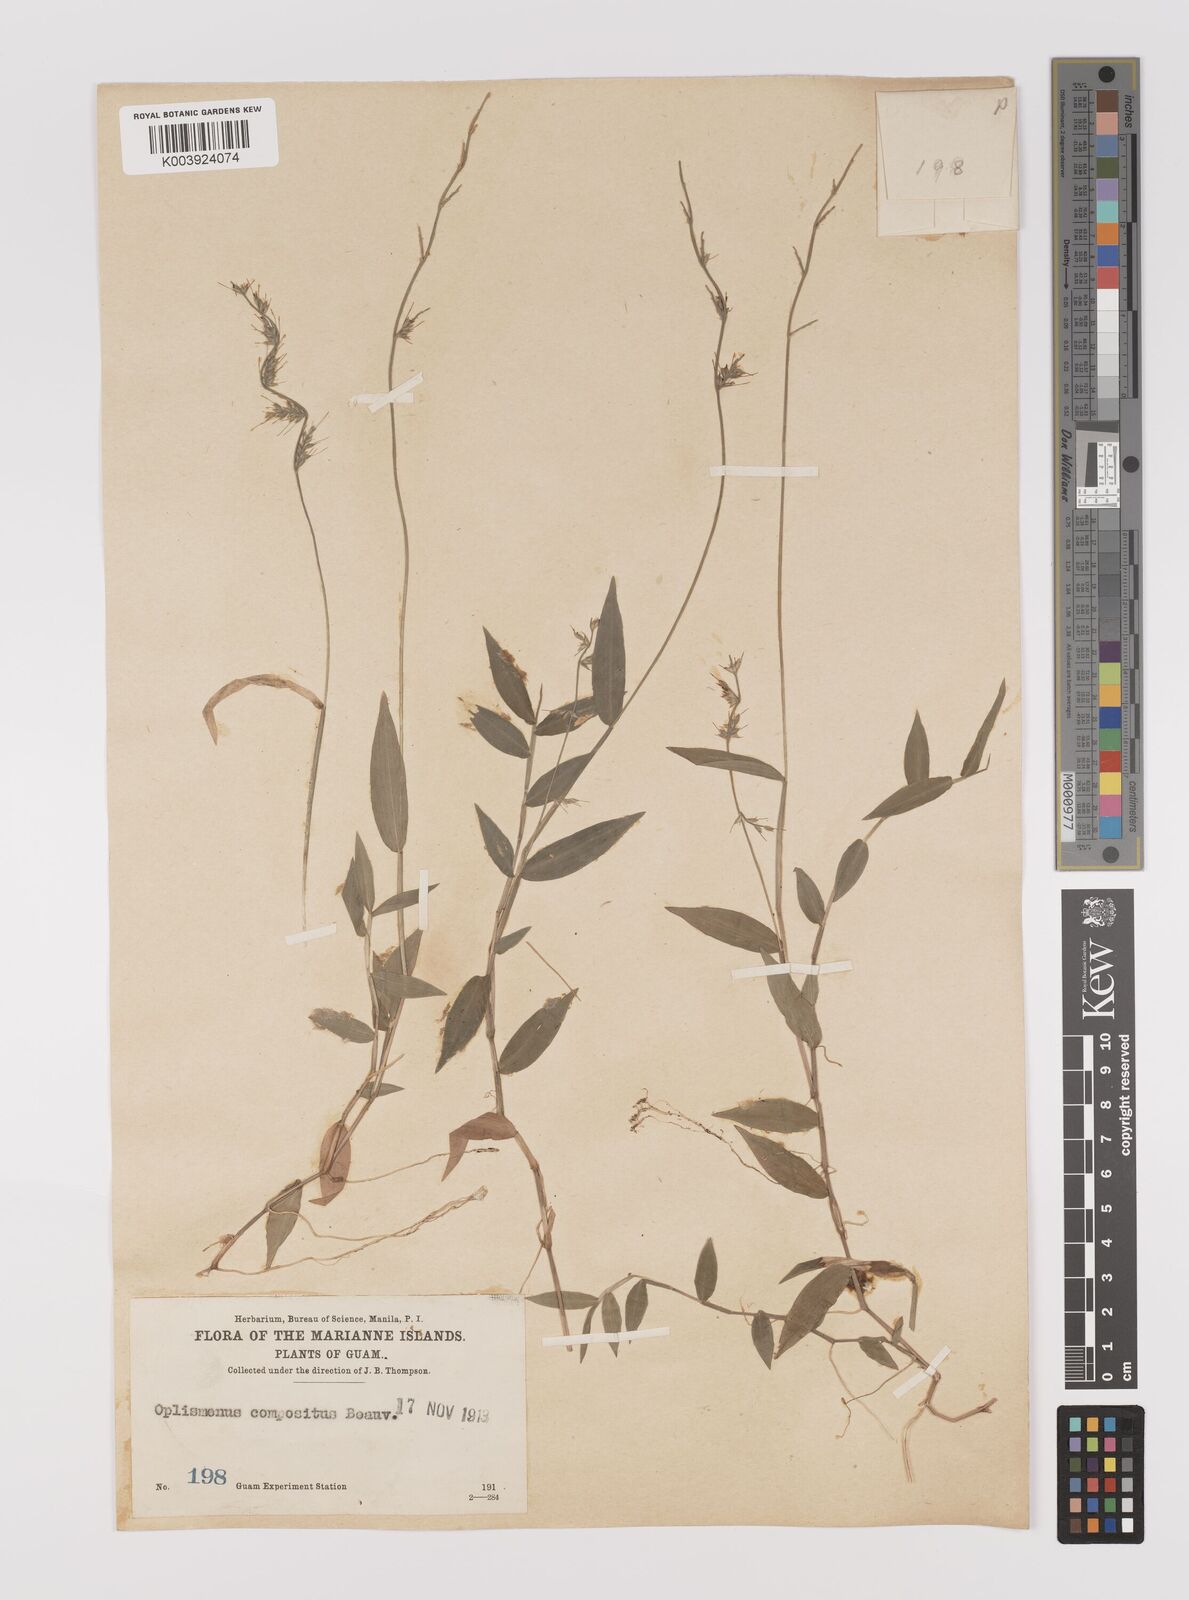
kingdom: Plantae
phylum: Tracheophyta
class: Liliopsida
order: Poales
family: Poaceae
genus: Oplismenus
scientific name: Oplismenus
